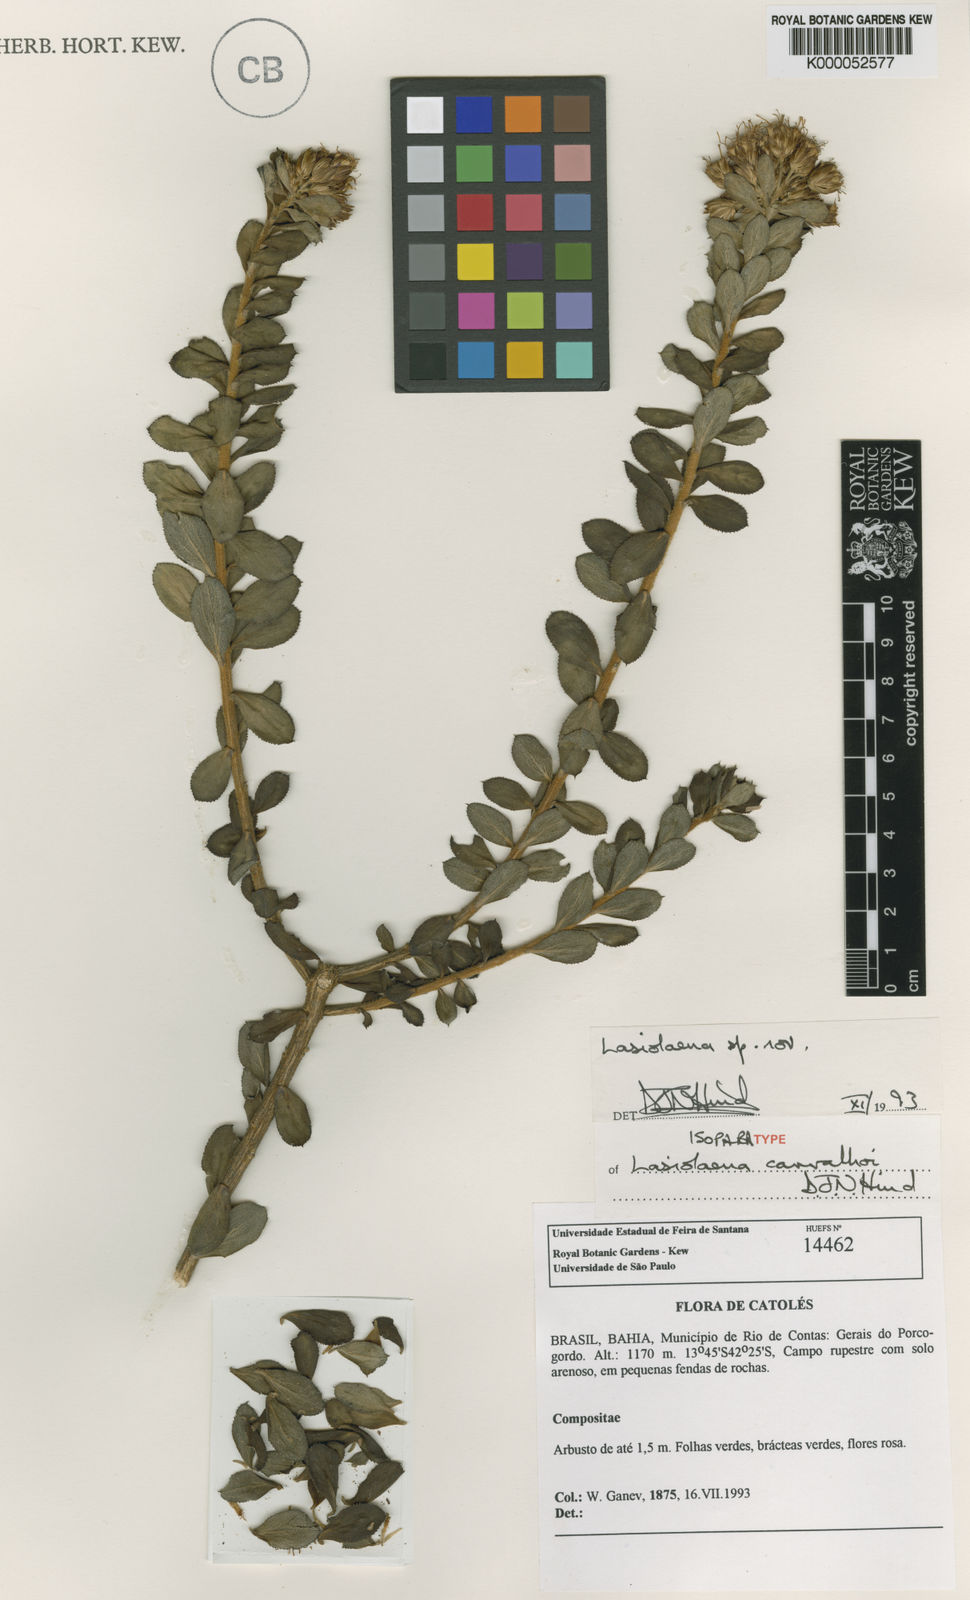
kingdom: Plantae
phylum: Tracheophyta
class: Magnoliopsida
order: Asterales
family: Asteraceae
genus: Lasiolaena
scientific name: Lasiolaena carvalhoi
